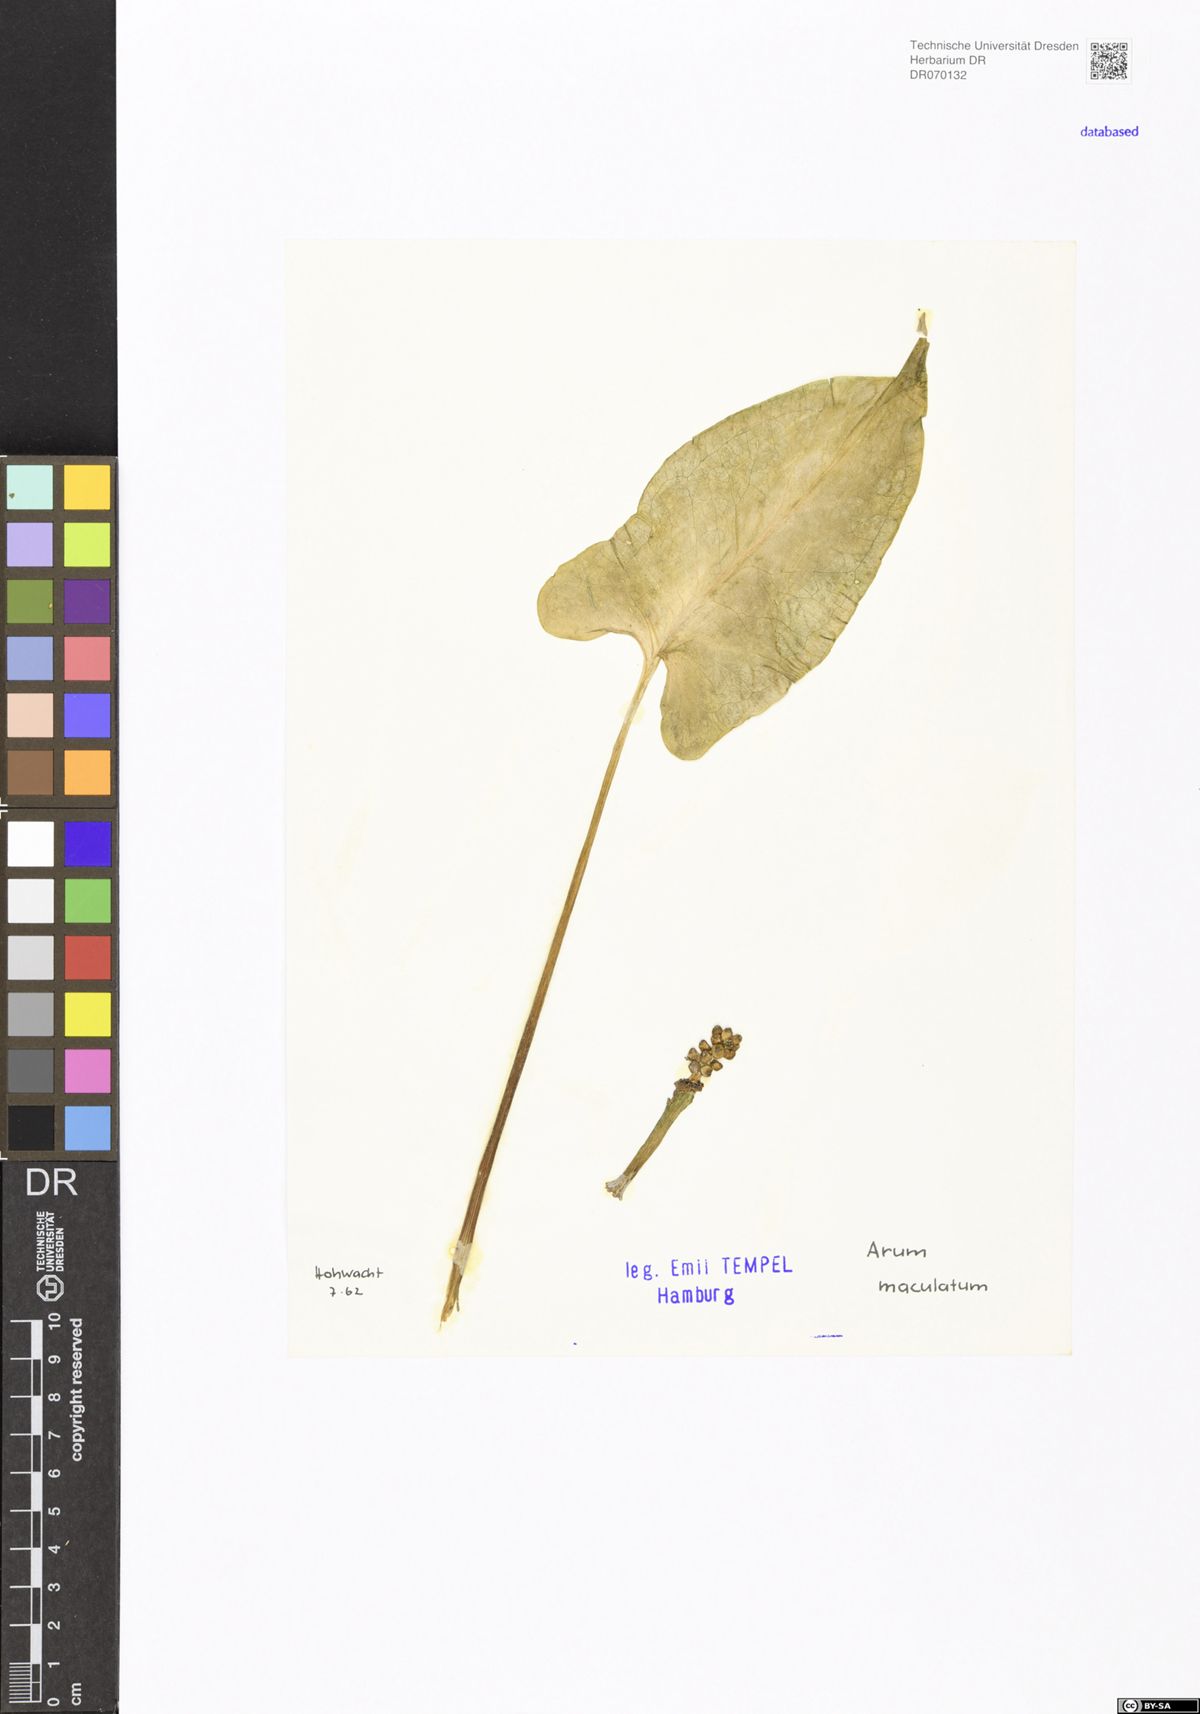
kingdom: Plantae
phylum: Tracheophyta
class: Liliopsida
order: Alismatales
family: Araceae
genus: Arum
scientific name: Arum maculatum
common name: Lords-and-ladies
